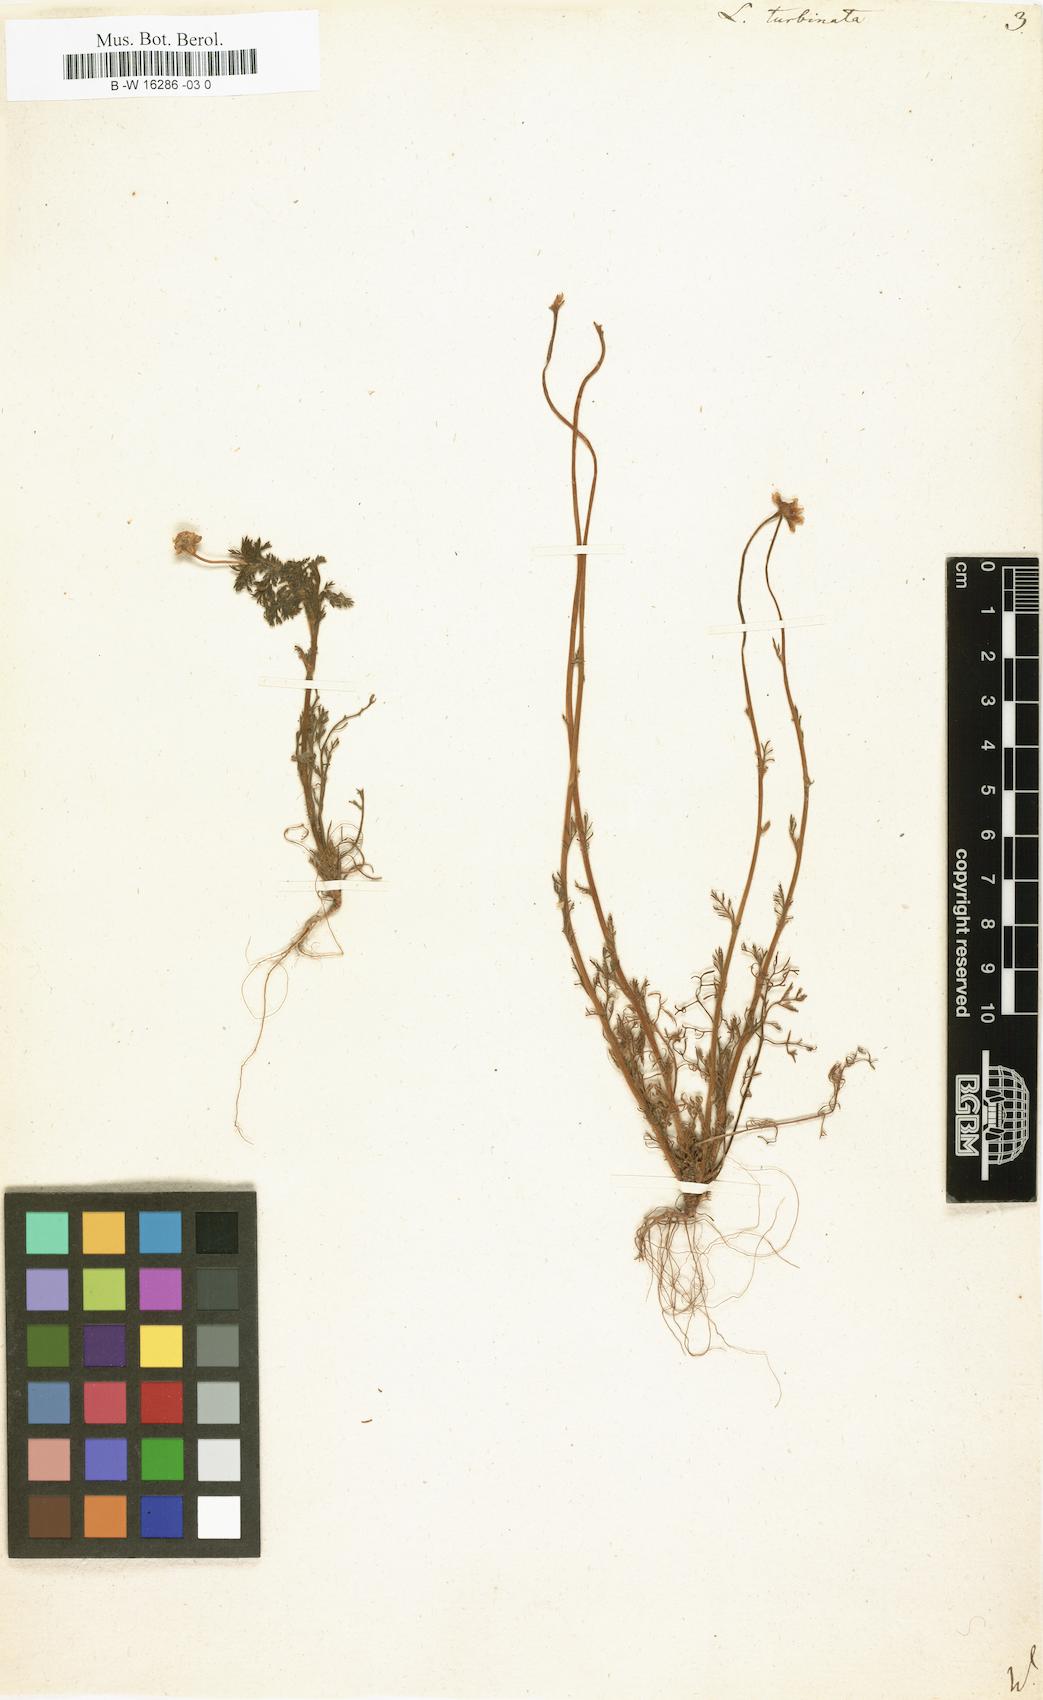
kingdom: Plantae
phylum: Tracheophyta
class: Magnoliopsida
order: Asterales
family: Asteraceae
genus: Cotula
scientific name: Cotula turbinata
